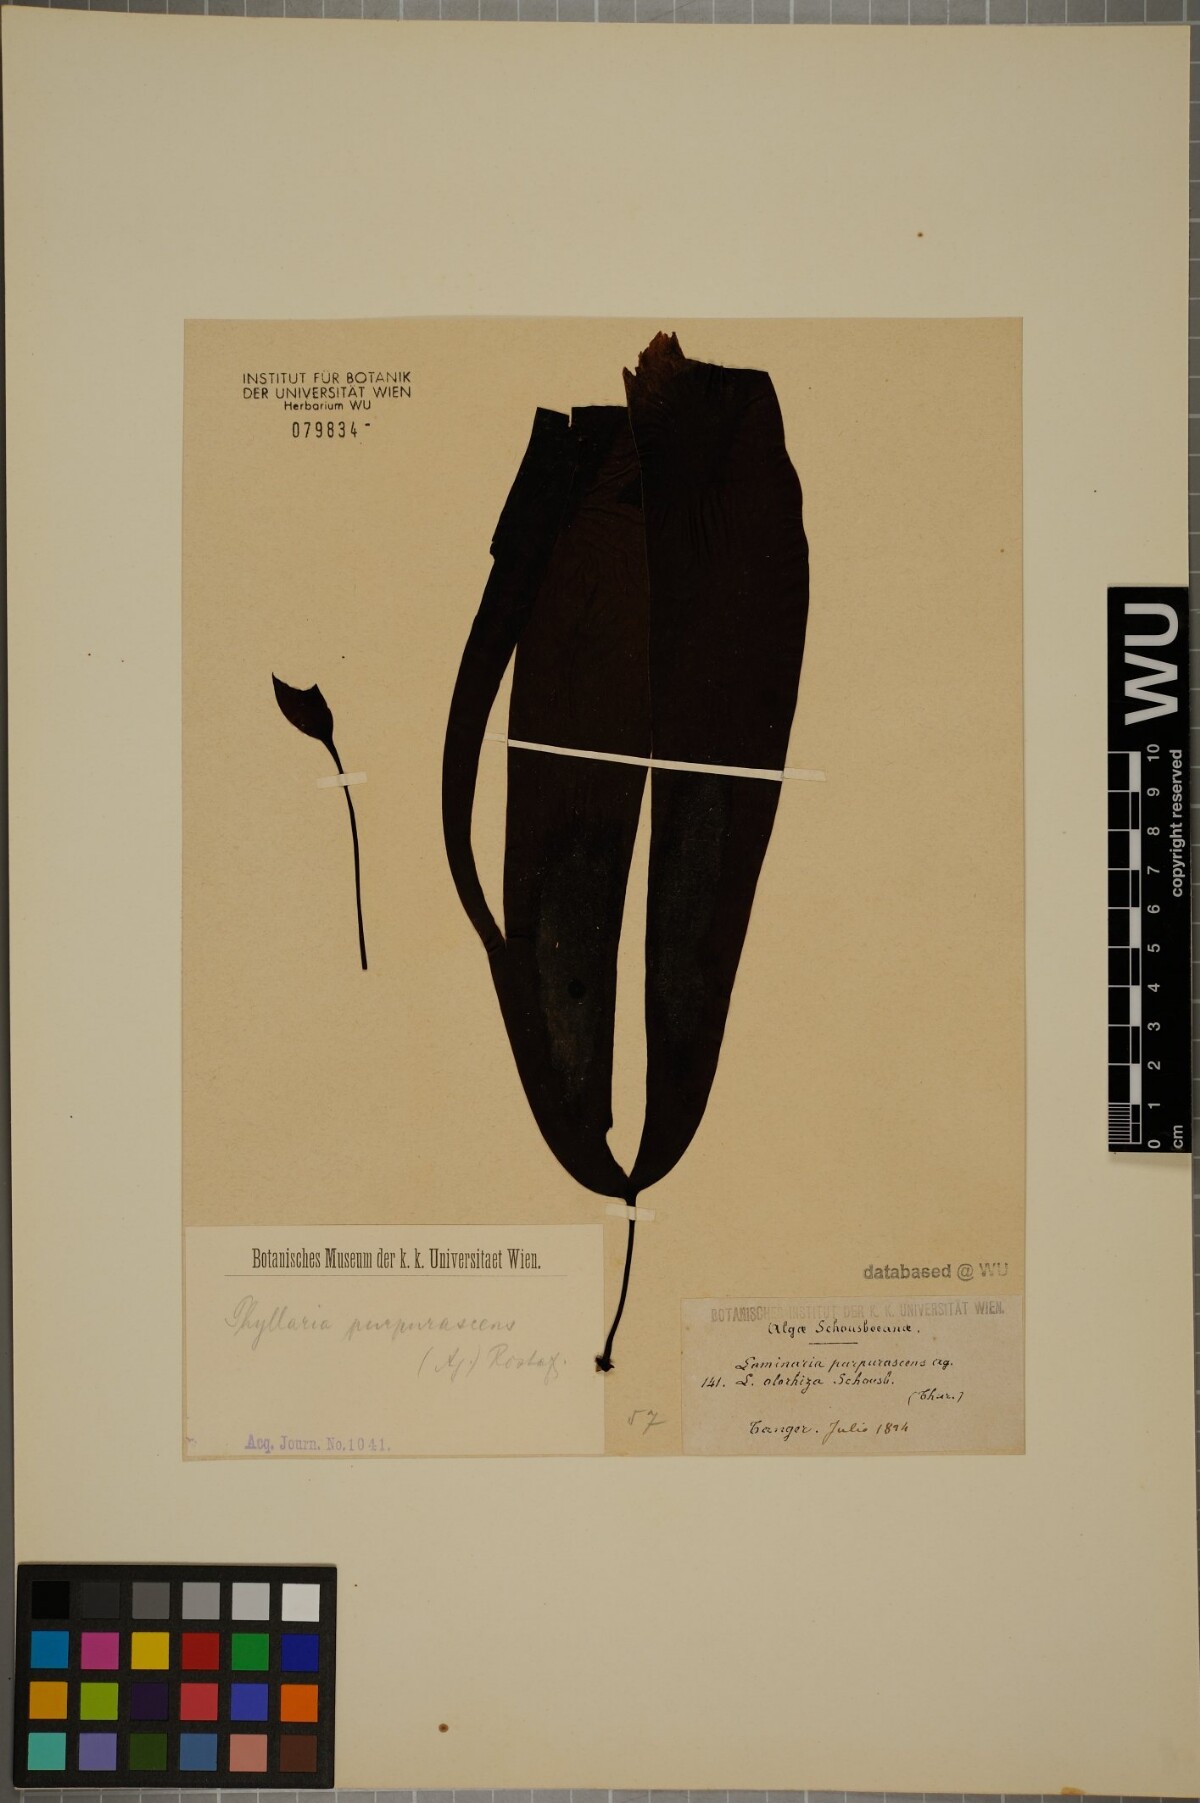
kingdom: Chromista
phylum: Ochrophyta
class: Phaeophyceae
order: Laminariales
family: Laminariaceae
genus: Phyllaria
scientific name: Phyllaria
